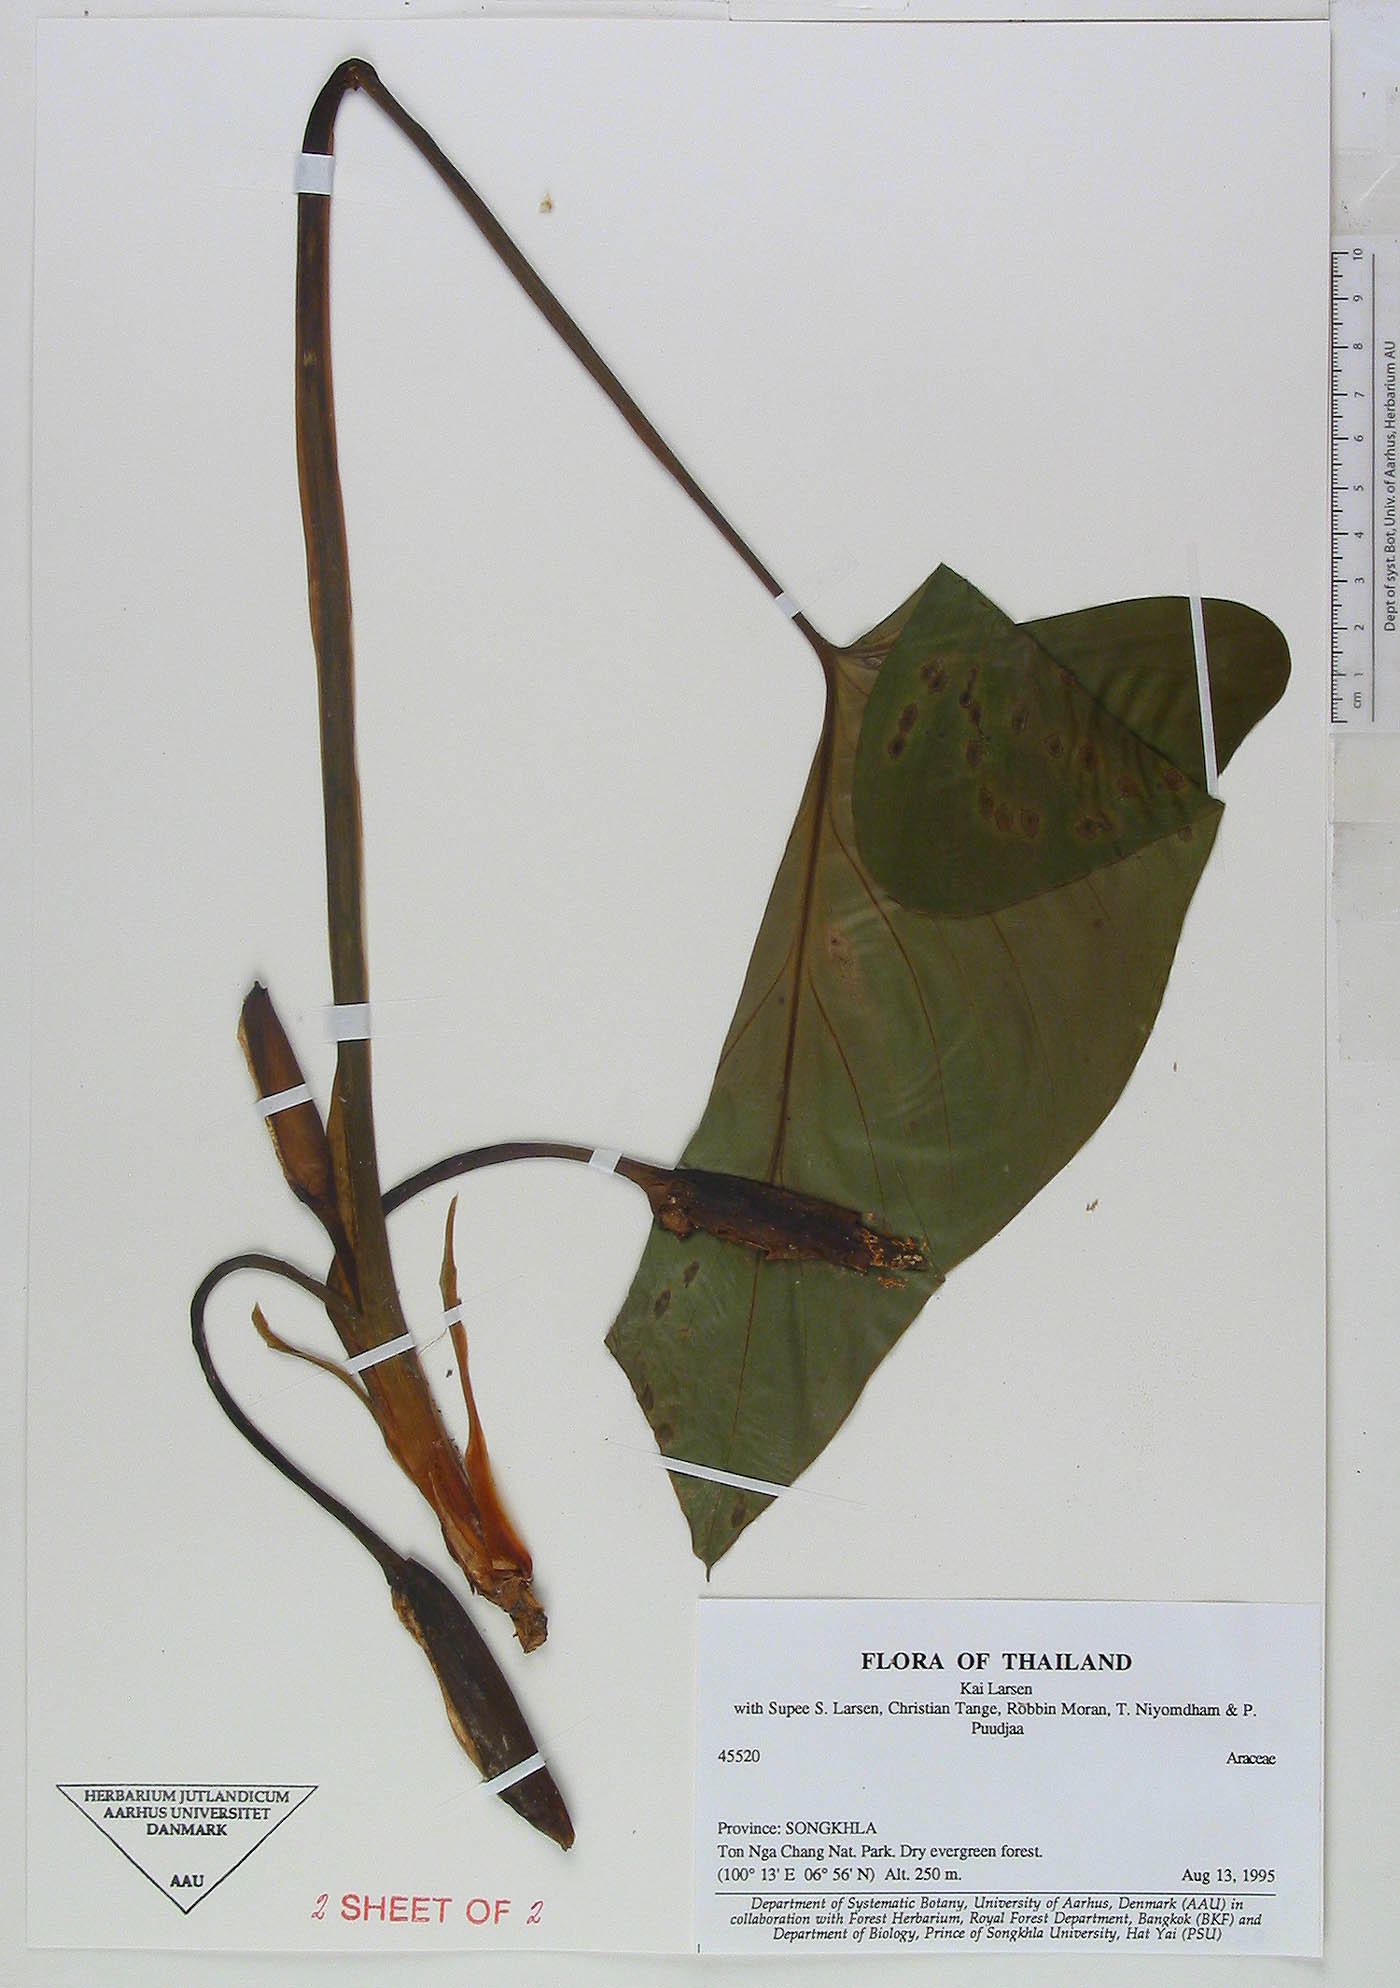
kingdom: Plantae
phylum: Tracheophyta
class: Liliopsida
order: Alismatales
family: Araceae
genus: Homalomena
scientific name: Homalomena pontederaefolia
